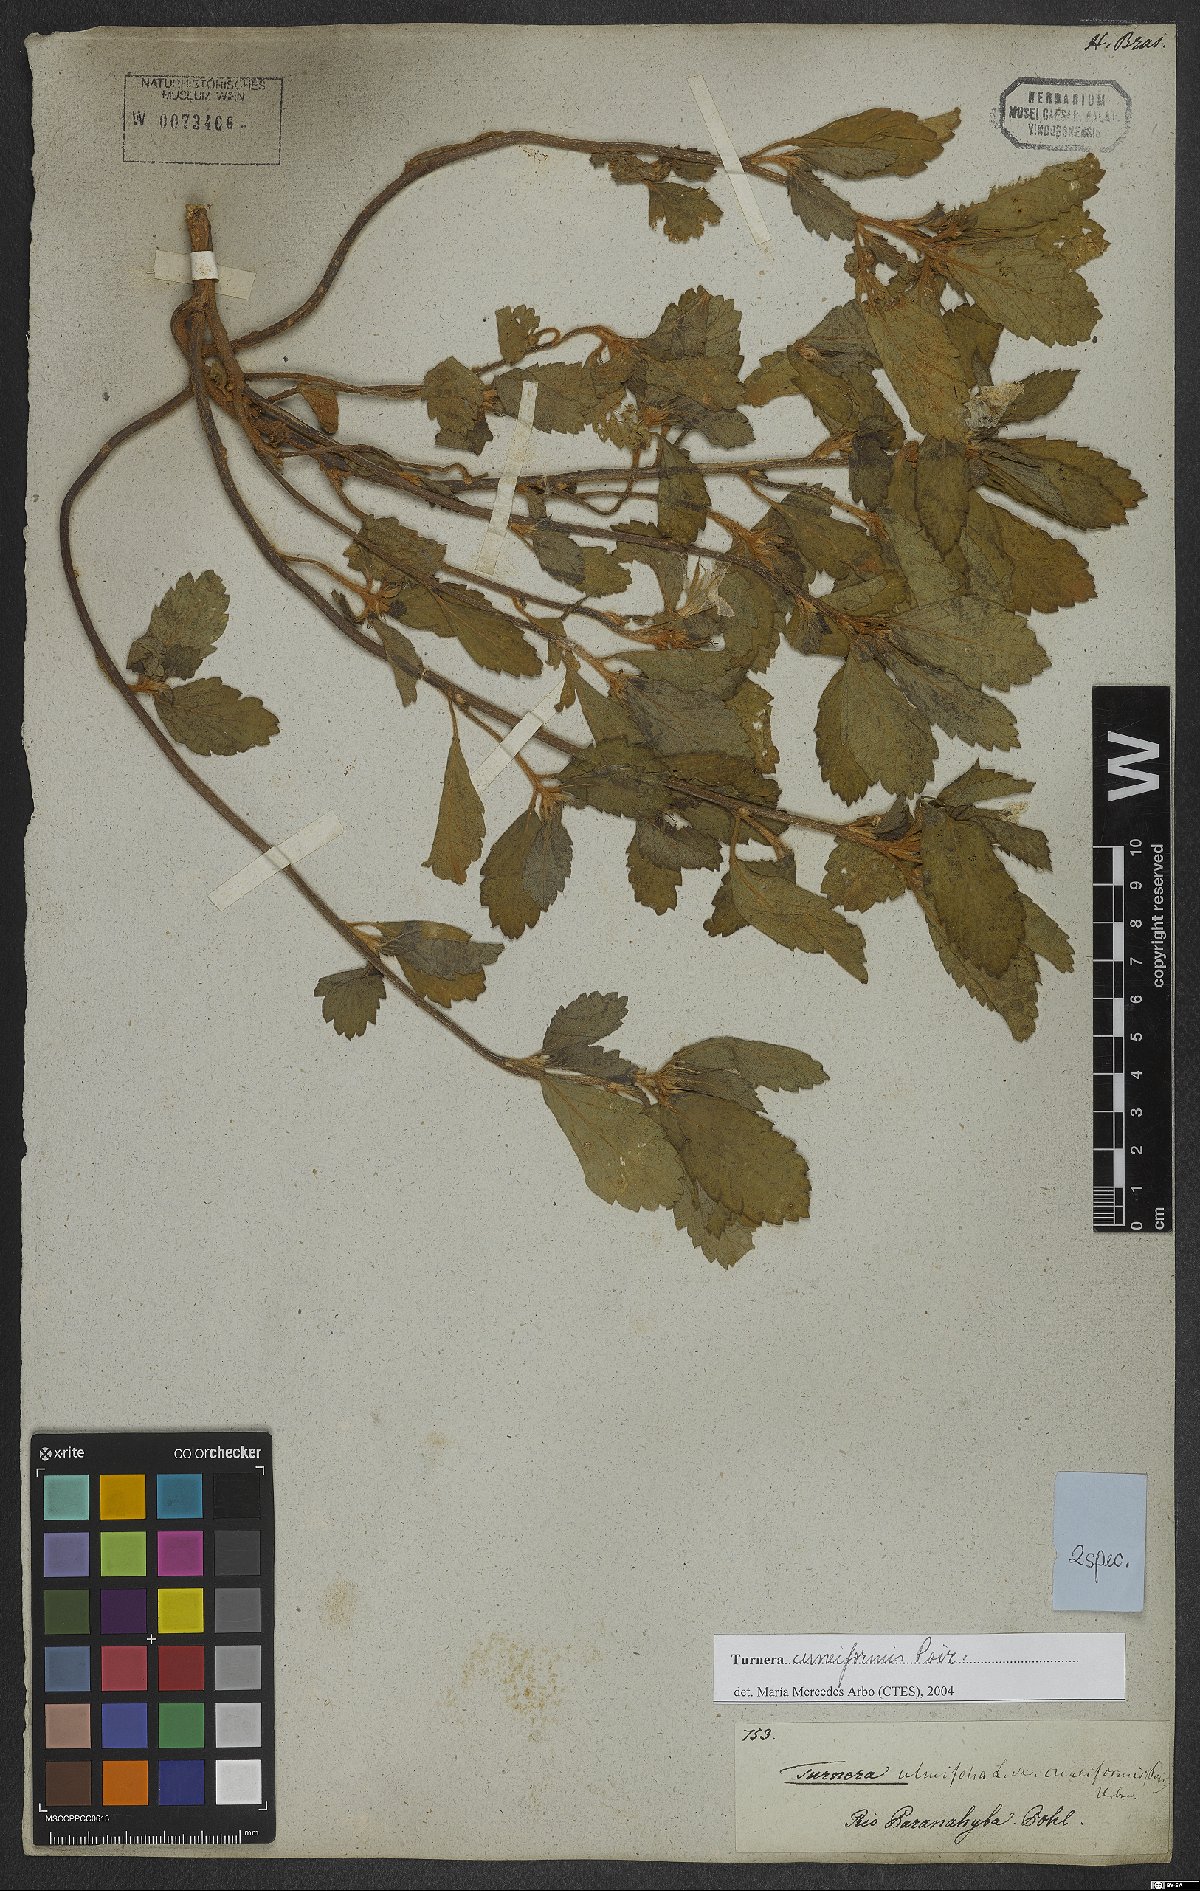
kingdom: Plantae
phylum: Tracheophyta
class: Magnoliopsida
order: Malpighiales
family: Turneraceae
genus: Turnera
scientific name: Turnera cuneiformis
